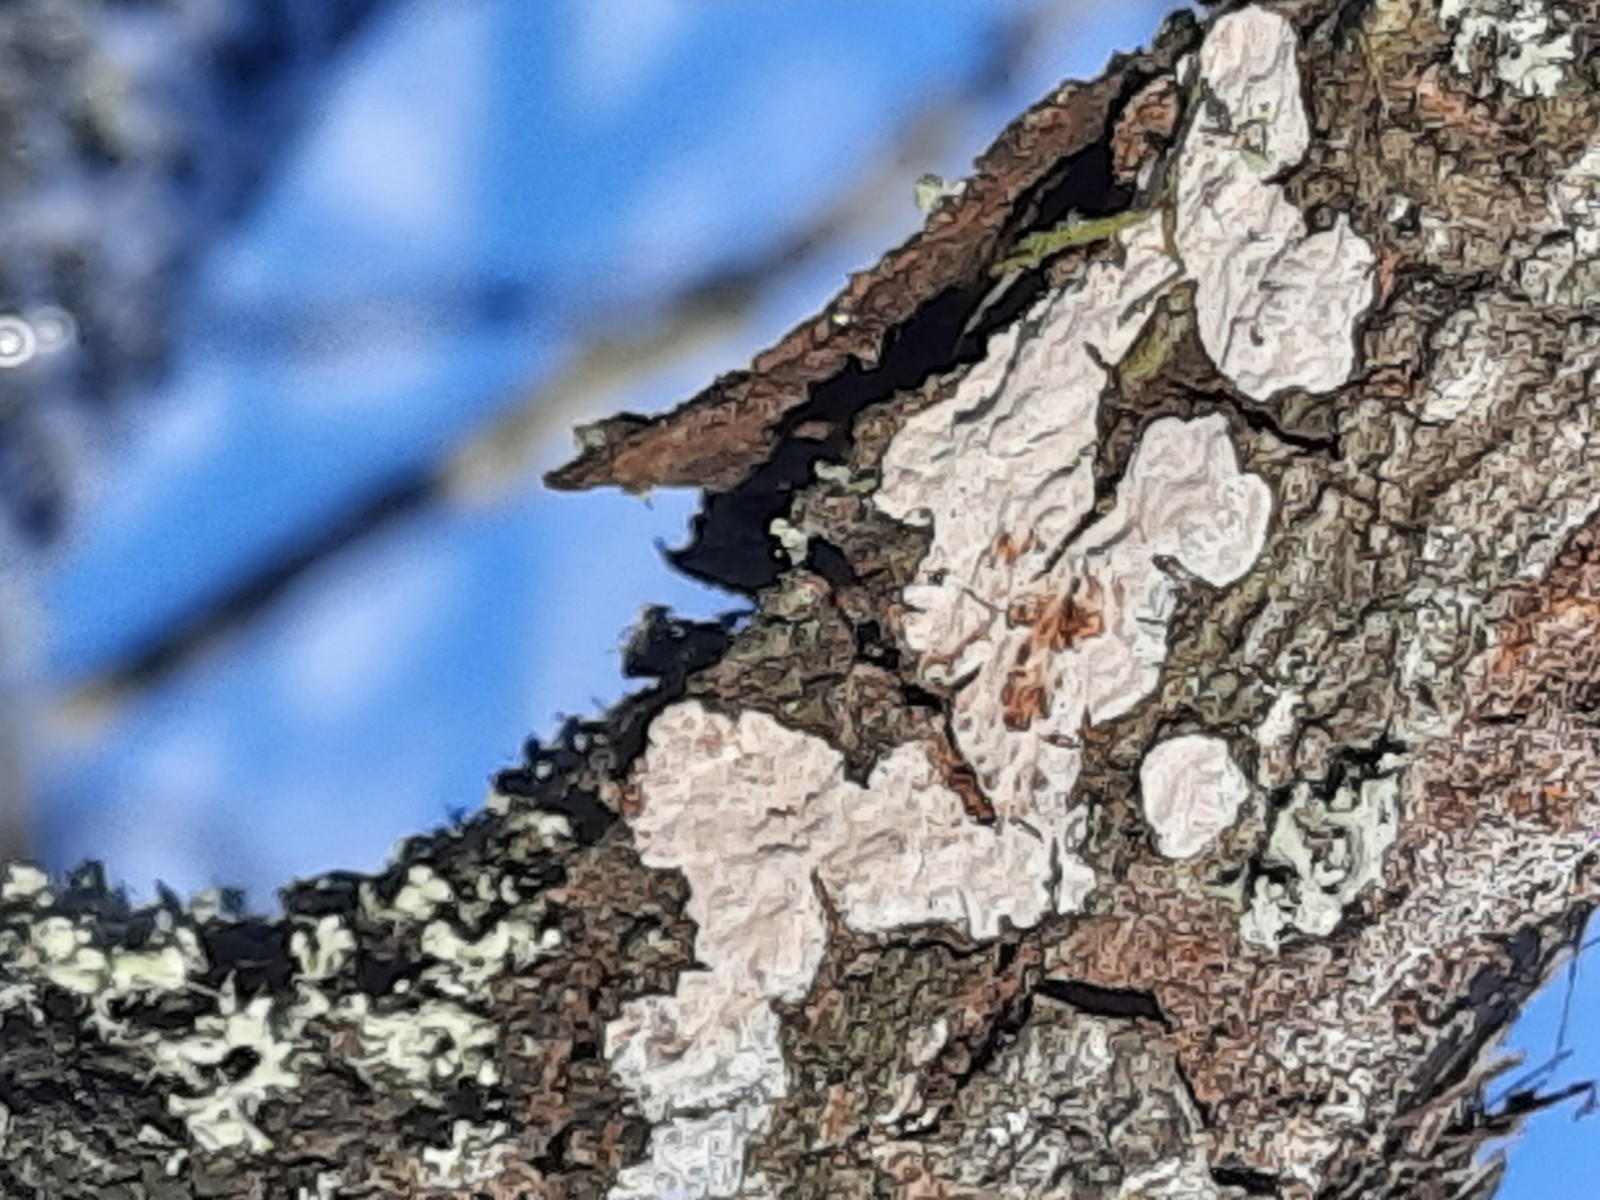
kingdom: Fungi
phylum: Basidiomycota
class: Agaricomycetes
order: Russulales
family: Peniophoraceae
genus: Peniophora
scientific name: Peniophora polygonia
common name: polygon-voksskind
